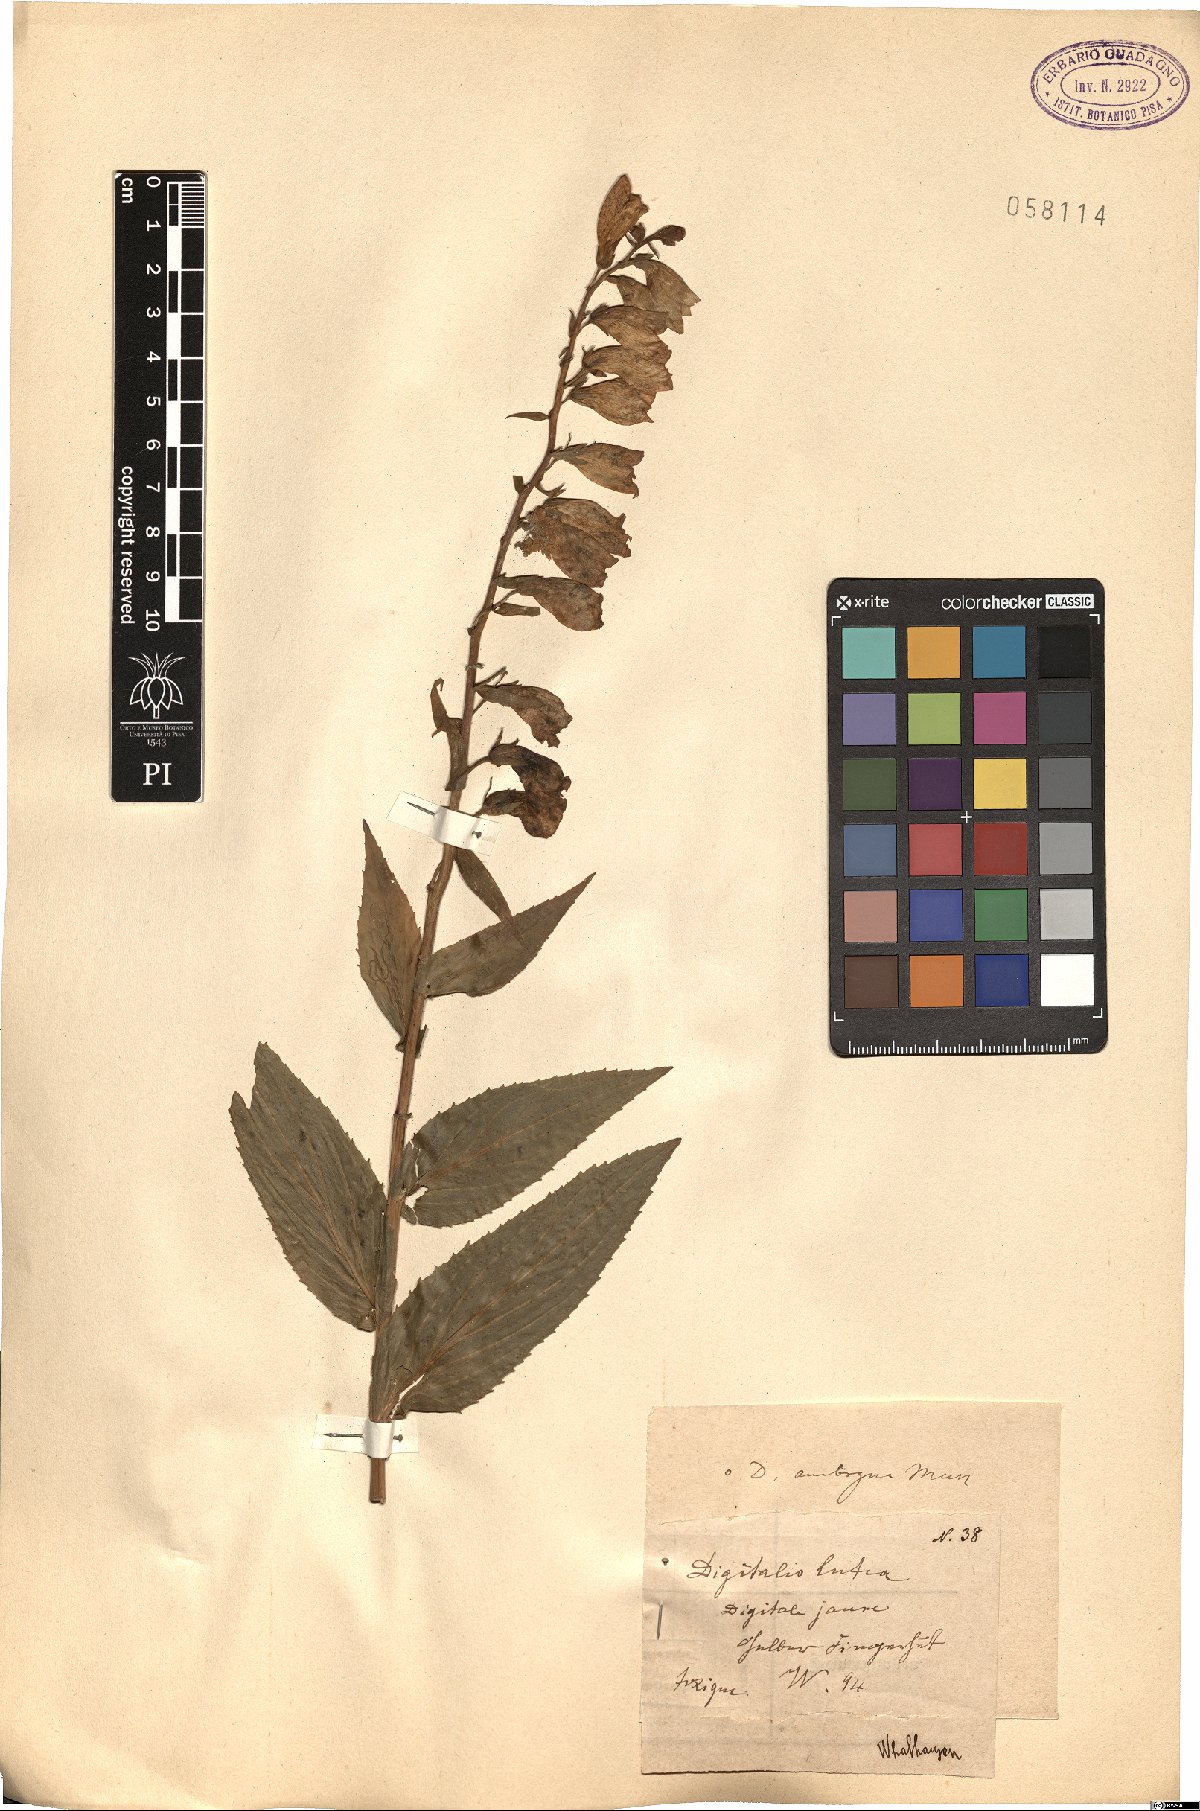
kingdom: Plantae
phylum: Tracheophyta
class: Magnoliopsida
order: Lamiales
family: Plantaginaceae
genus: Digitalis
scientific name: Digitalis lutea
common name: Straw foxglove
